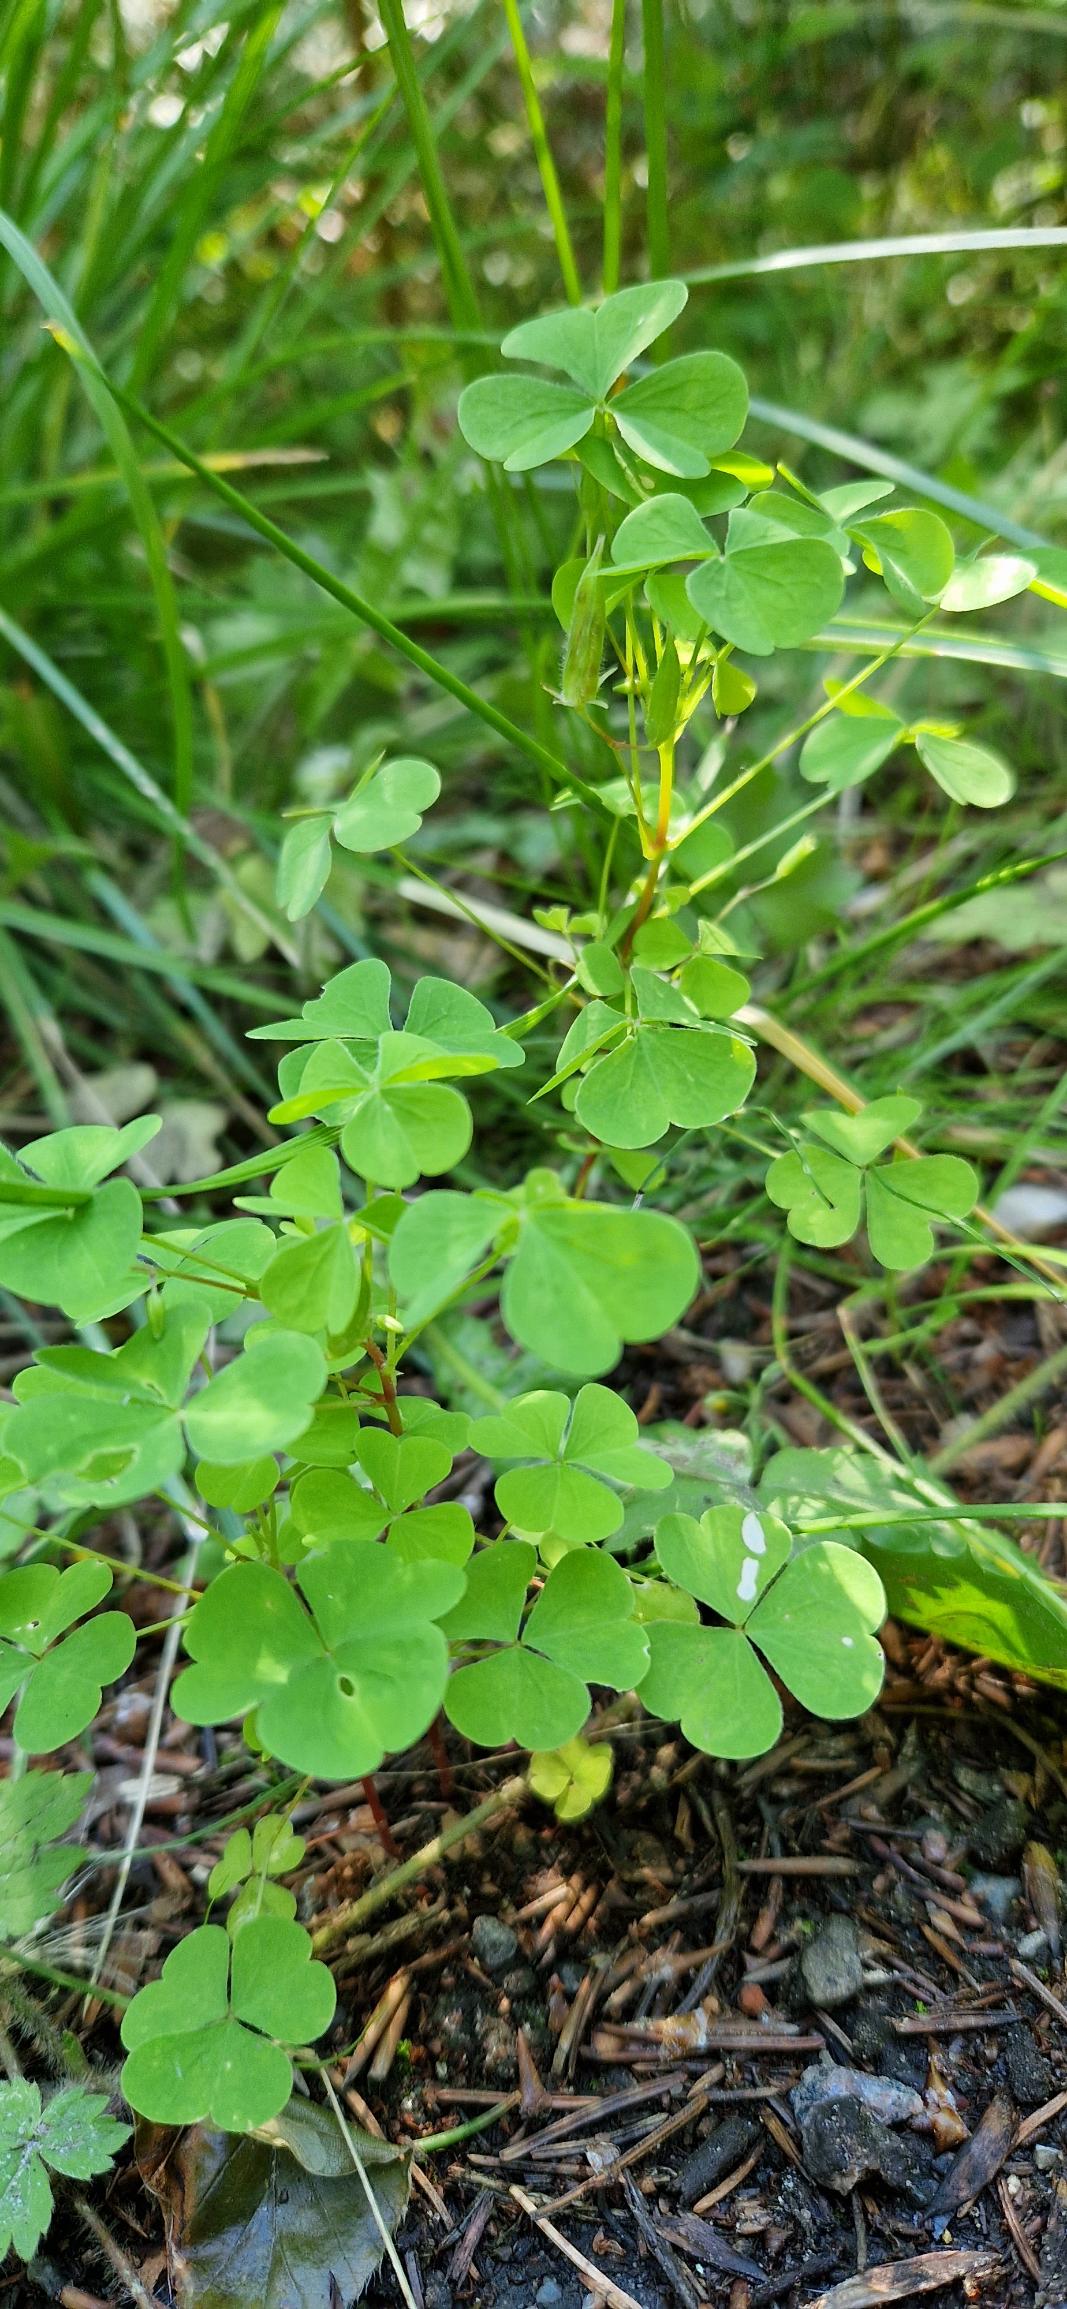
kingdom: Plantae
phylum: Tracheophyta
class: Magnoliopsida
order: Oxalidales
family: Oxalidaceae
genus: Oxalis
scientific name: Oxalis stricta
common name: Rank surkløver
